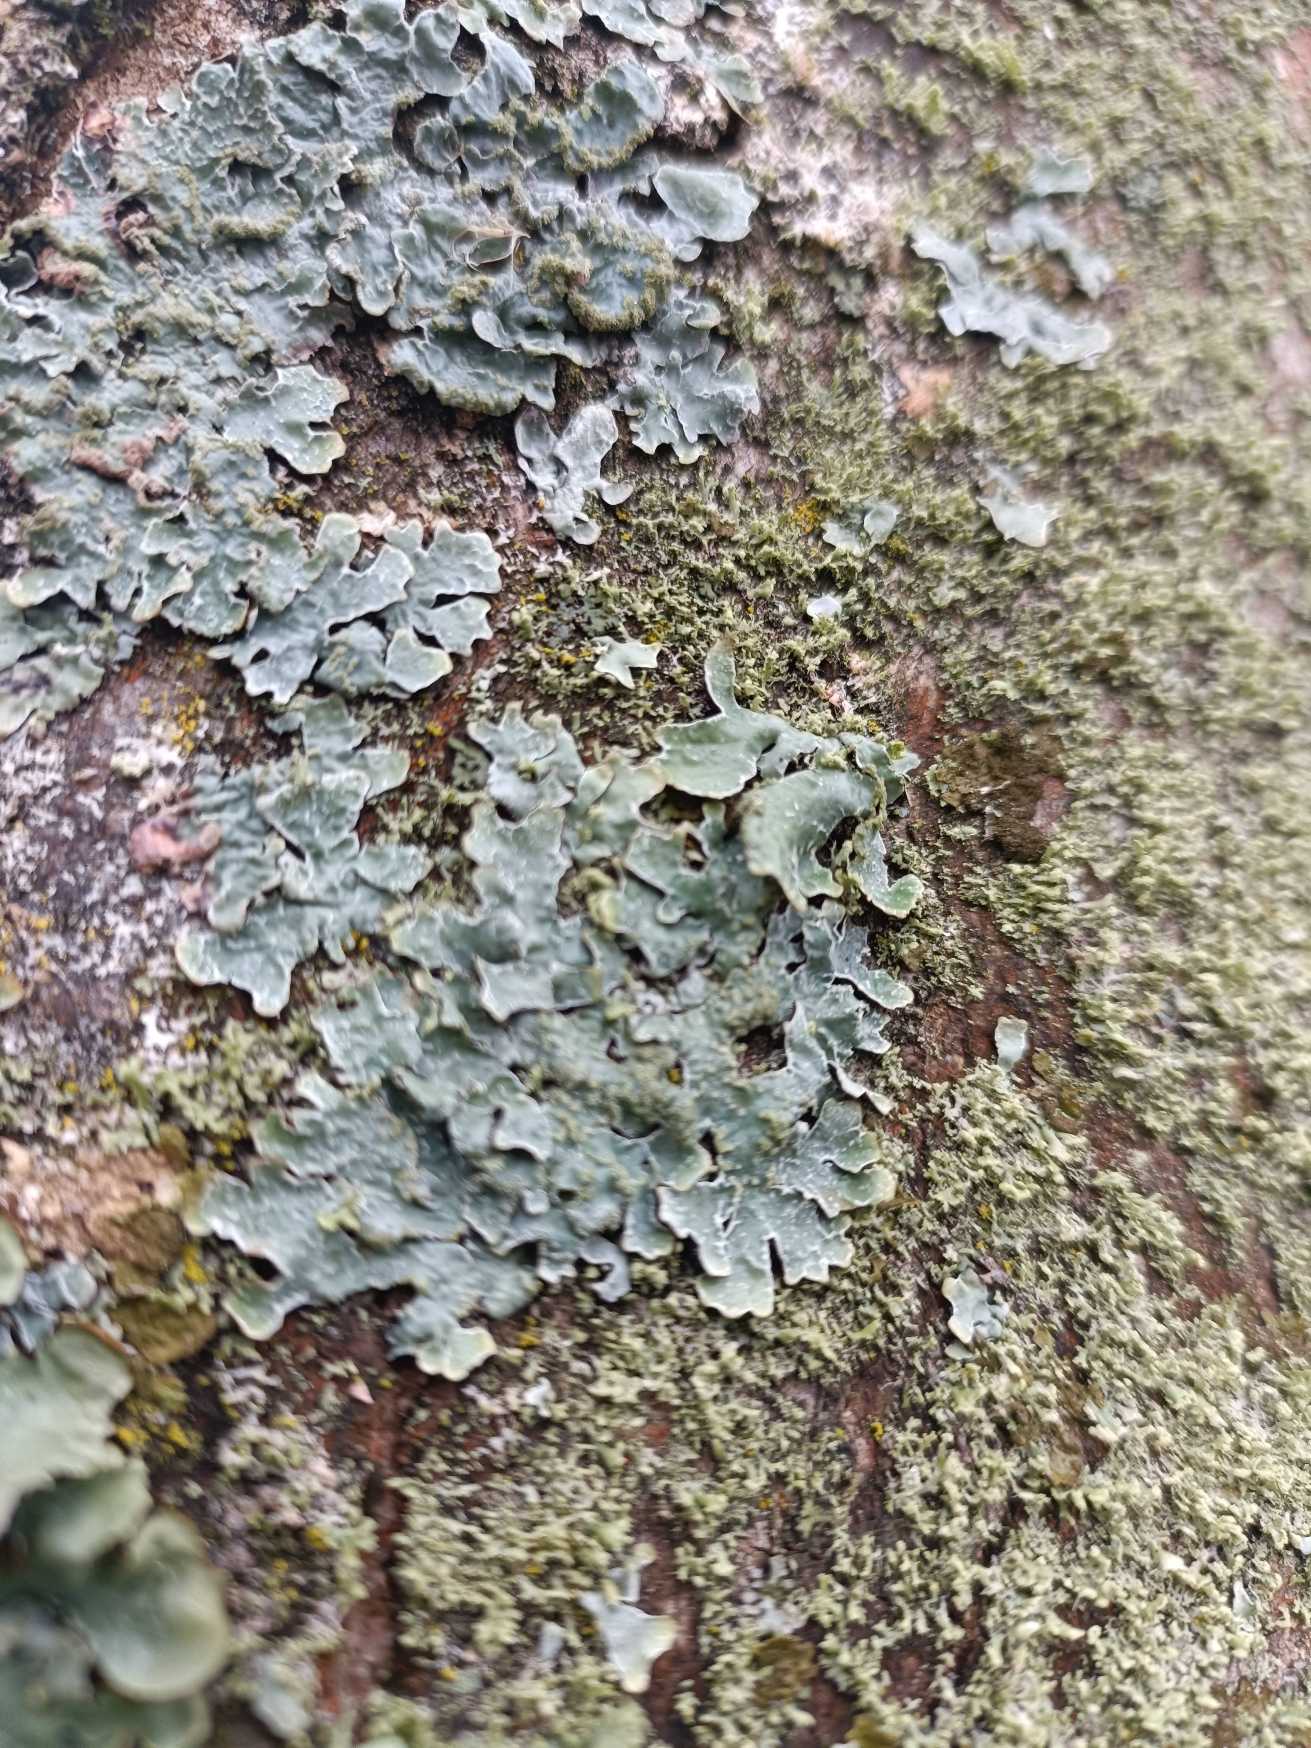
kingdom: Fungi
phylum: Ascomycota
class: Lecanoromycetes
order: Lecanorales
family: Parmeliaceae
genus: Parmelia
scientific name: Parmelia sulcata
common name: Rynket skållav
